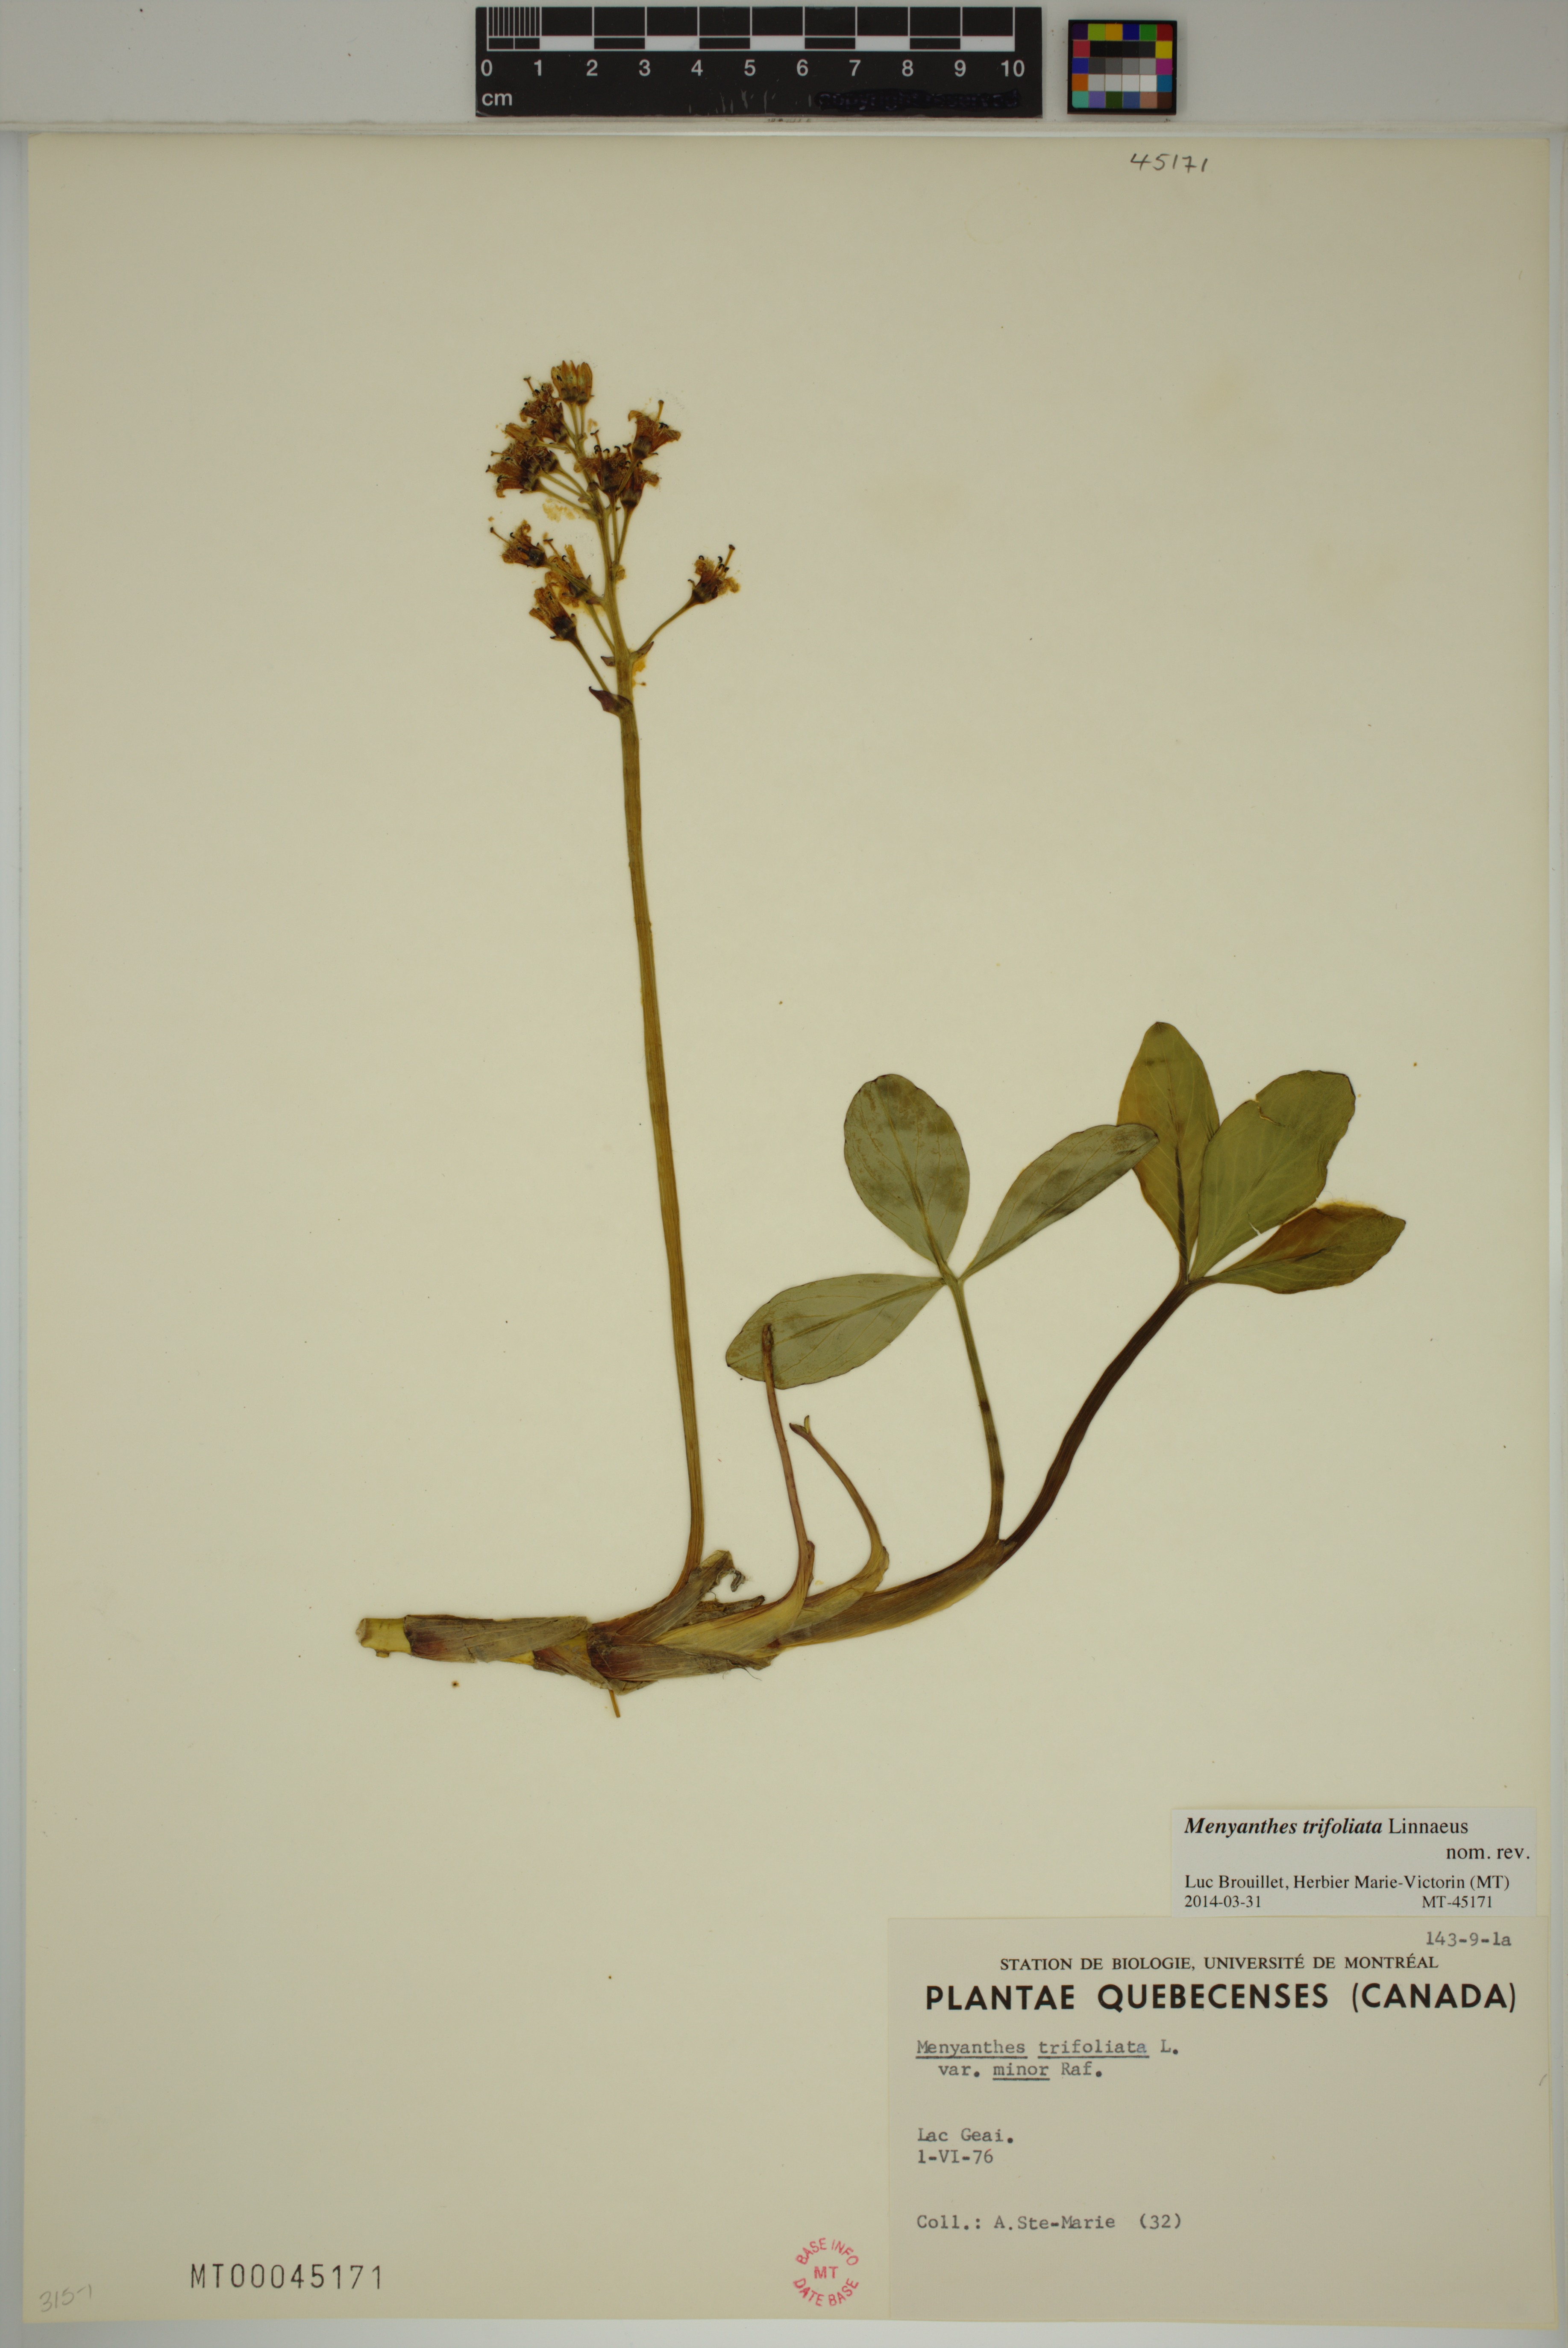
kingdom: Plantae
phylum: Tracheophyta
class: Magnoliopsida
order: Asterales
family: Menyanthaceae
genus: Menyanthes
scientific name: Menyanthes trifoliata
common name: Bogbean
